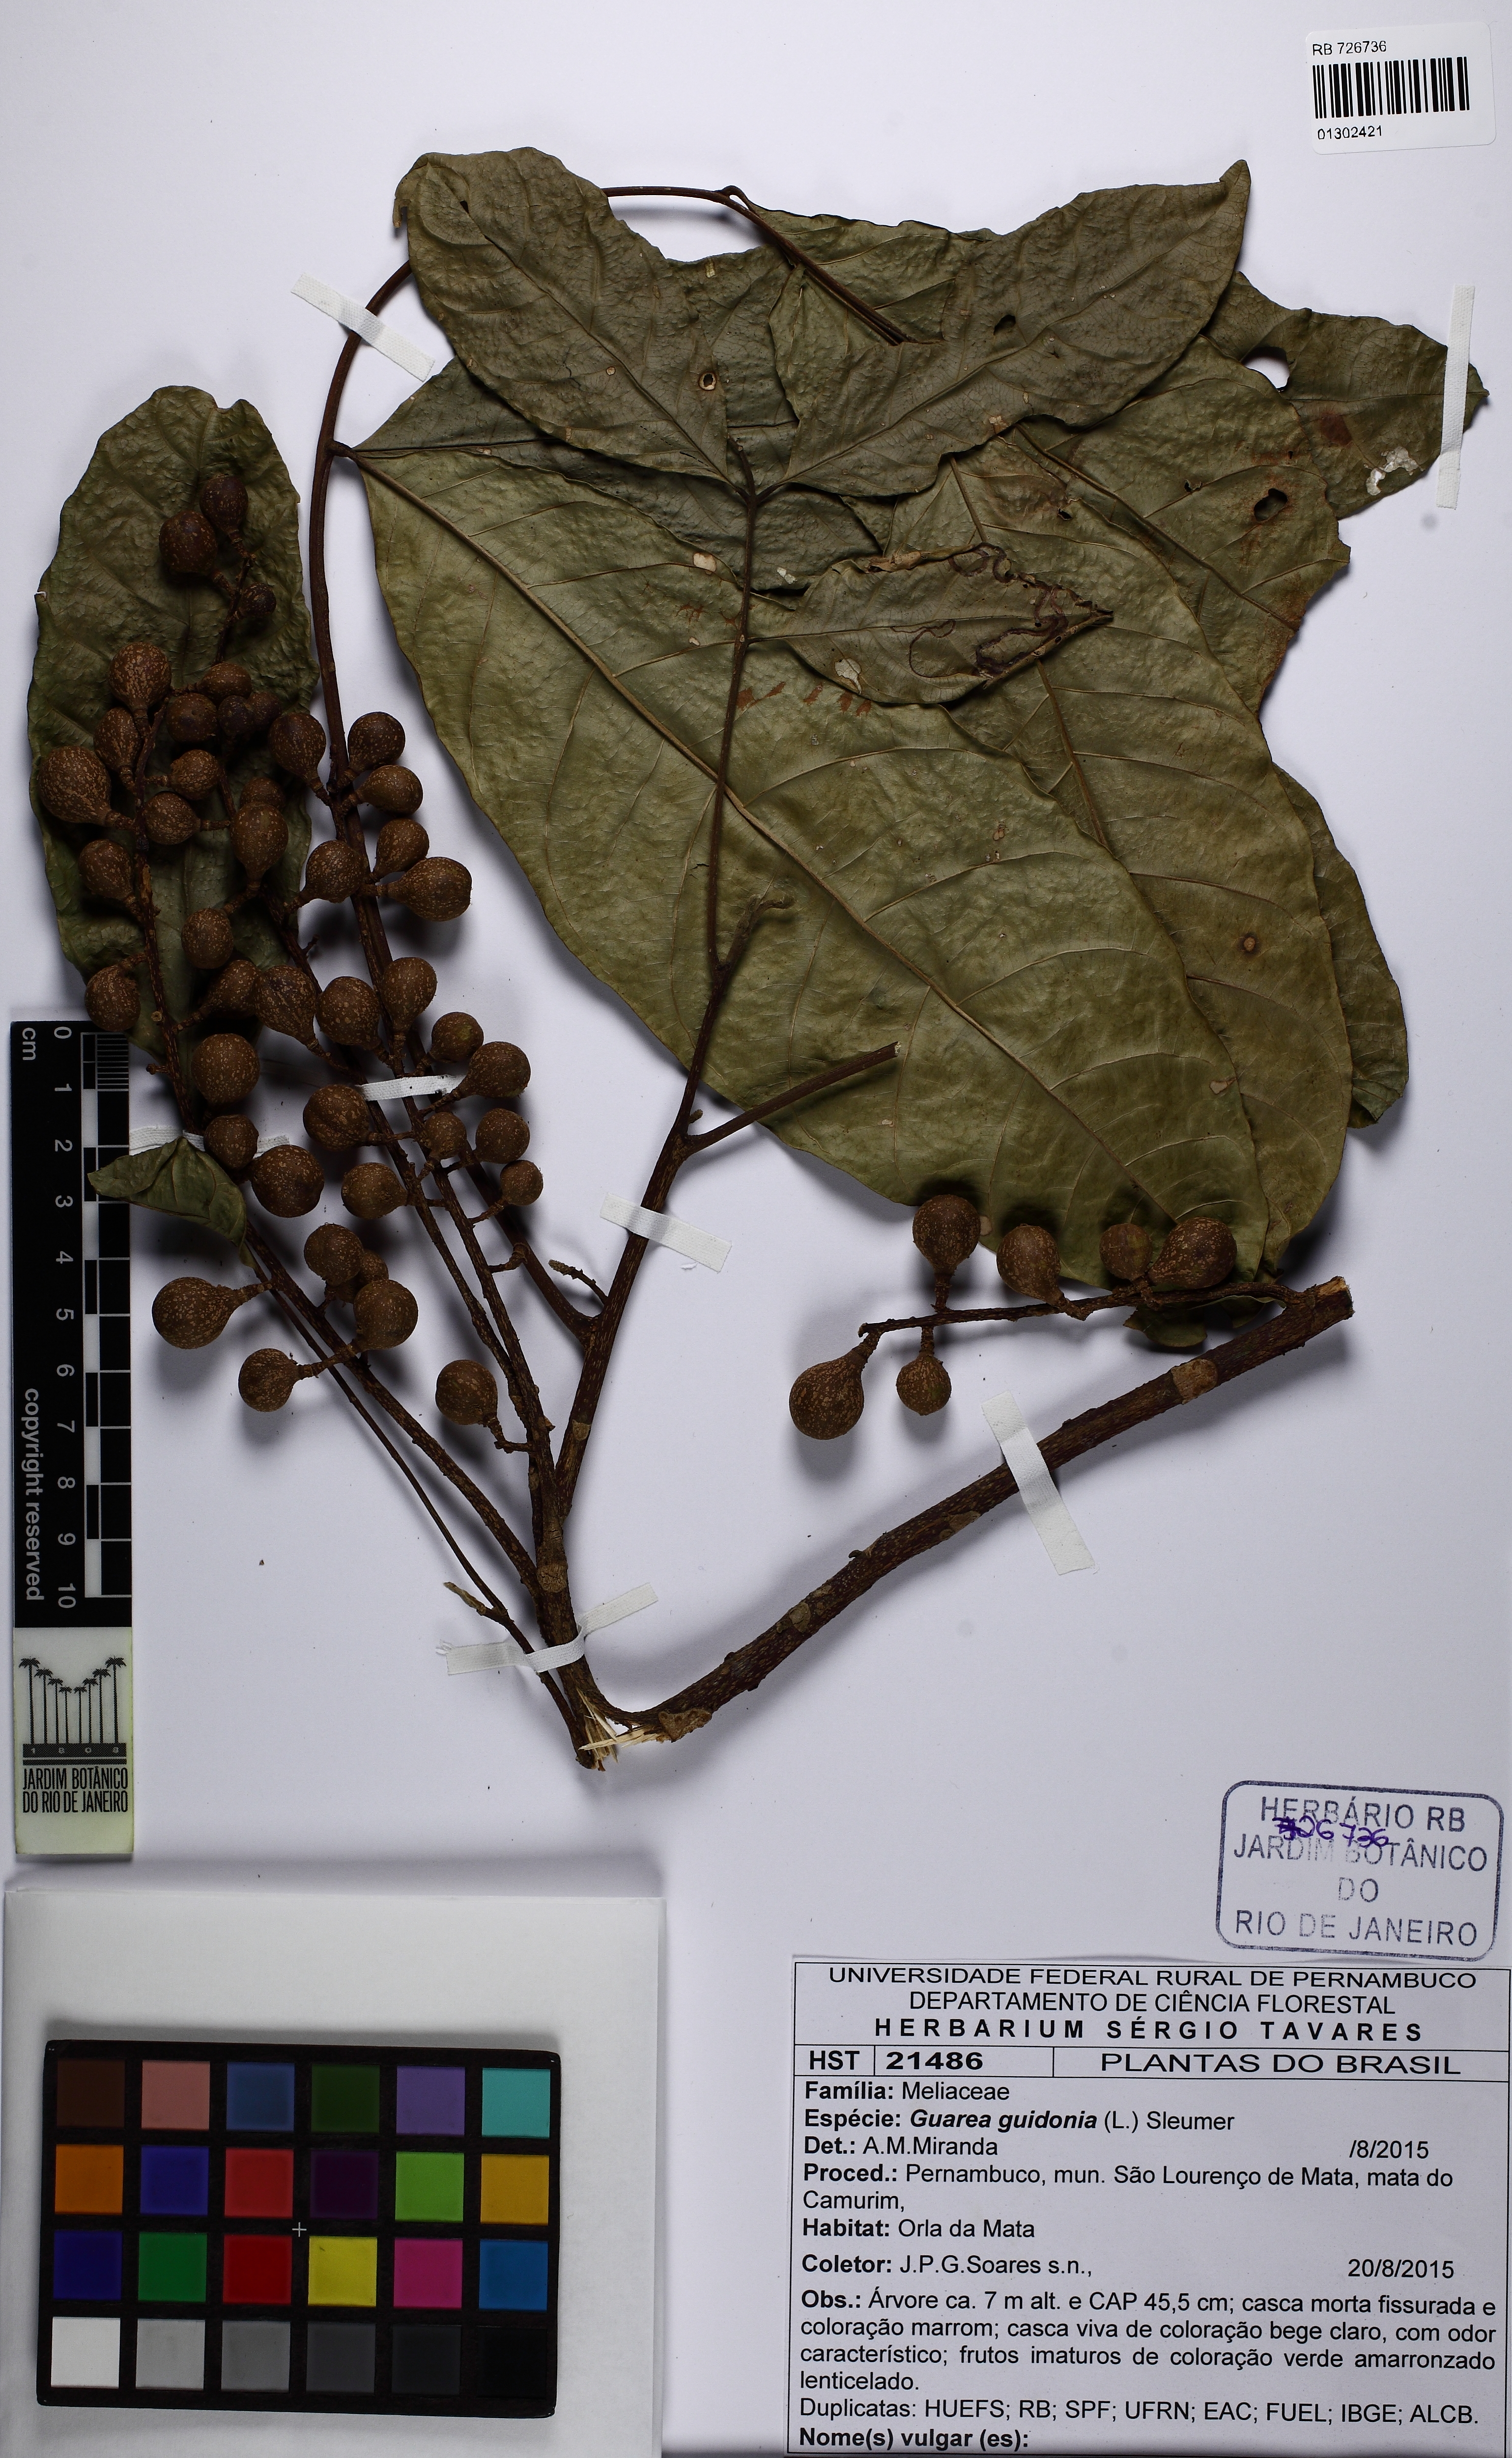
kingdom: Plantae
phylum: Tracheophyta
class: Magnoliopsida
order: Sapindales
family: Meliaceae
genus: Guarea
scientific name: Guarea guidonia
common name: American muskwood
